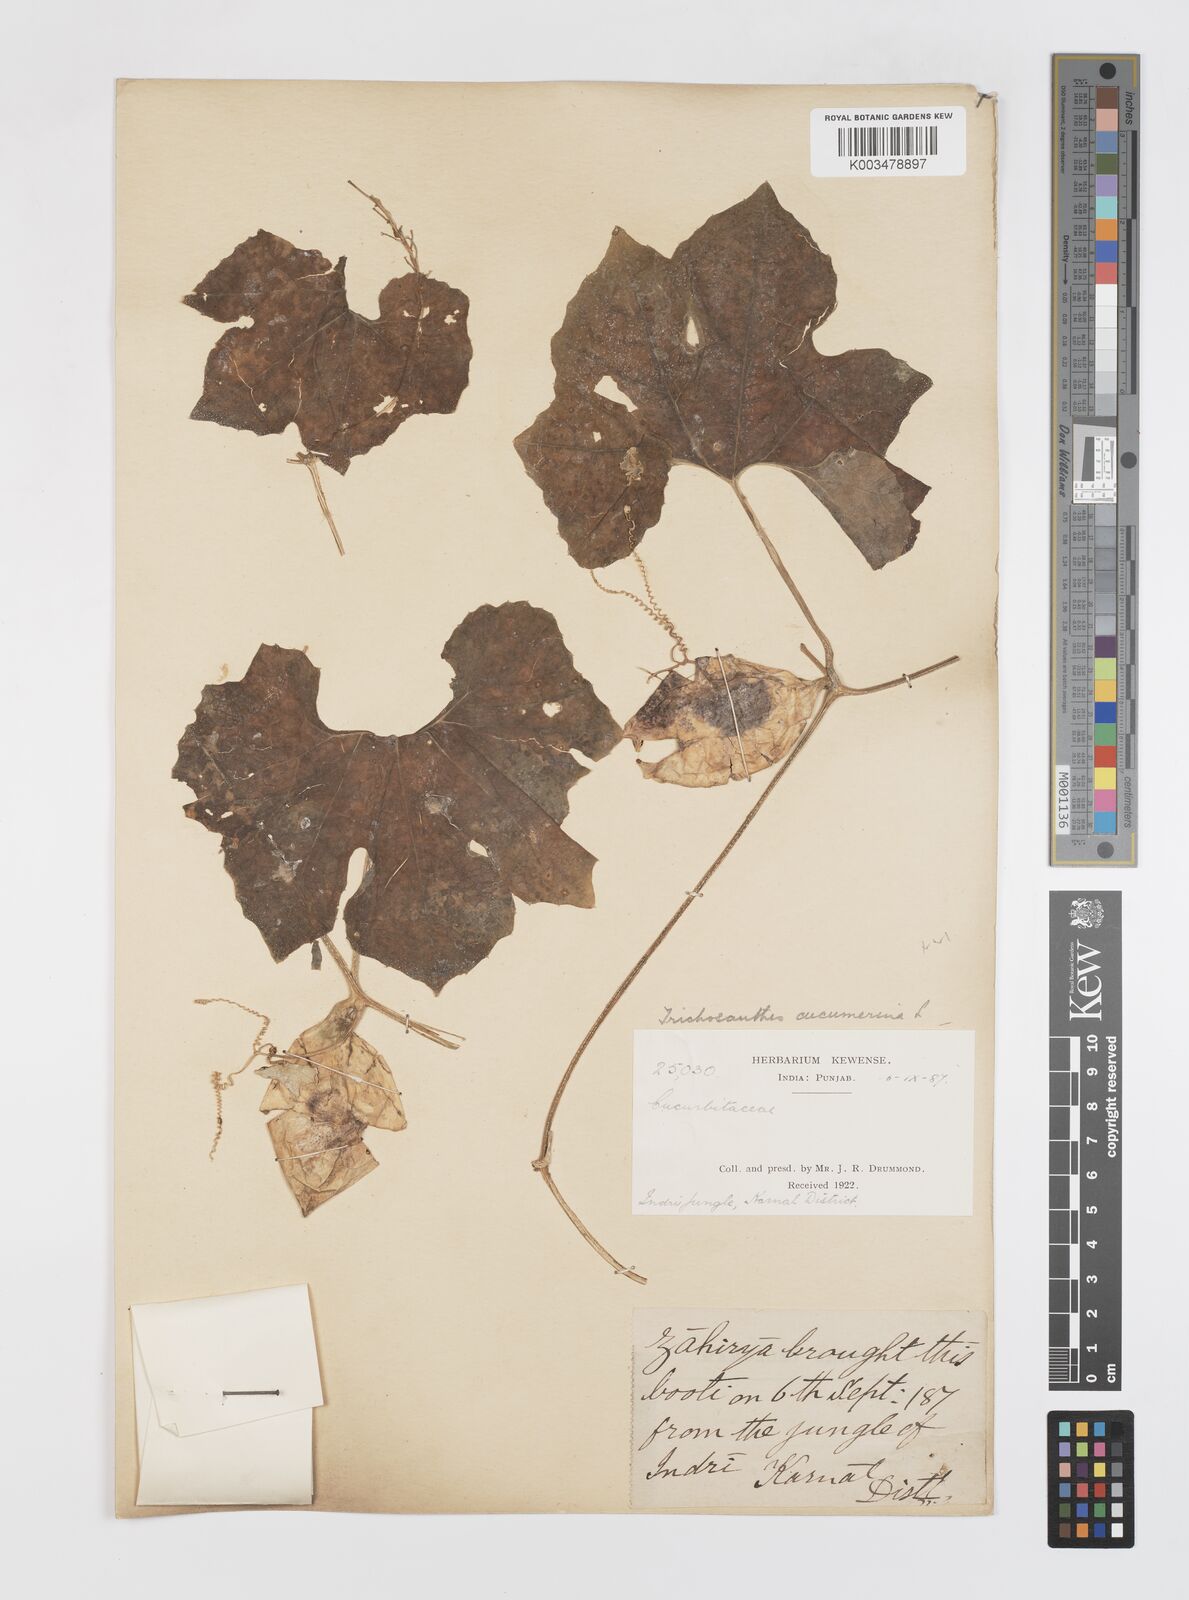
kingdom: Plantae
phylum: Tracheophyta
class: Magnoliopsida
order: Cucurbitales
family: Cucurbitaceae
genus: Trichosanthes
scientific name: Trichosanthes cucumerina
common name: Snakegourd
